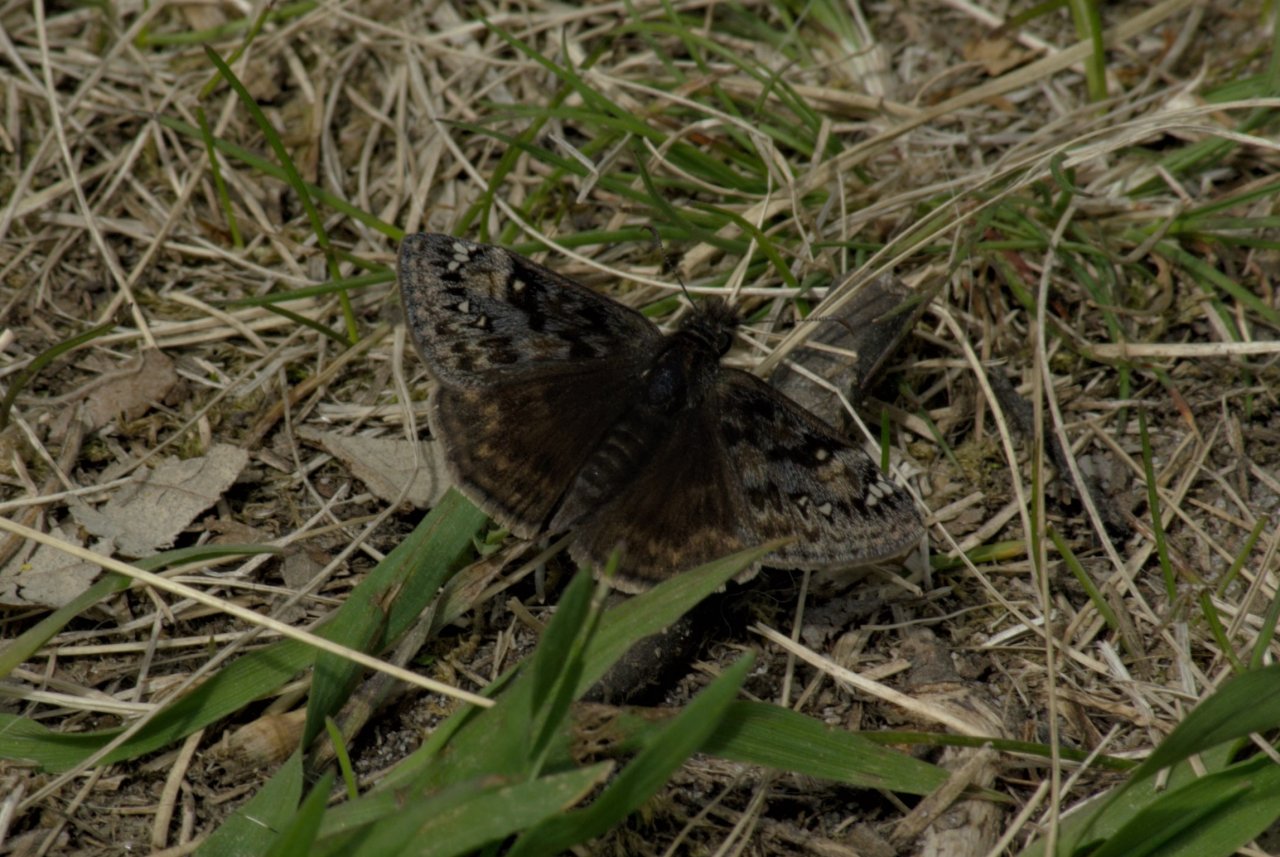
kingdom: Animalia
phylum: Arthropoda
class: Insecta
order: Lepidoptera
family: Hesperiidae
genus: Gesta
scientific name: Gesta
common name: Juvenal's Duskywing
